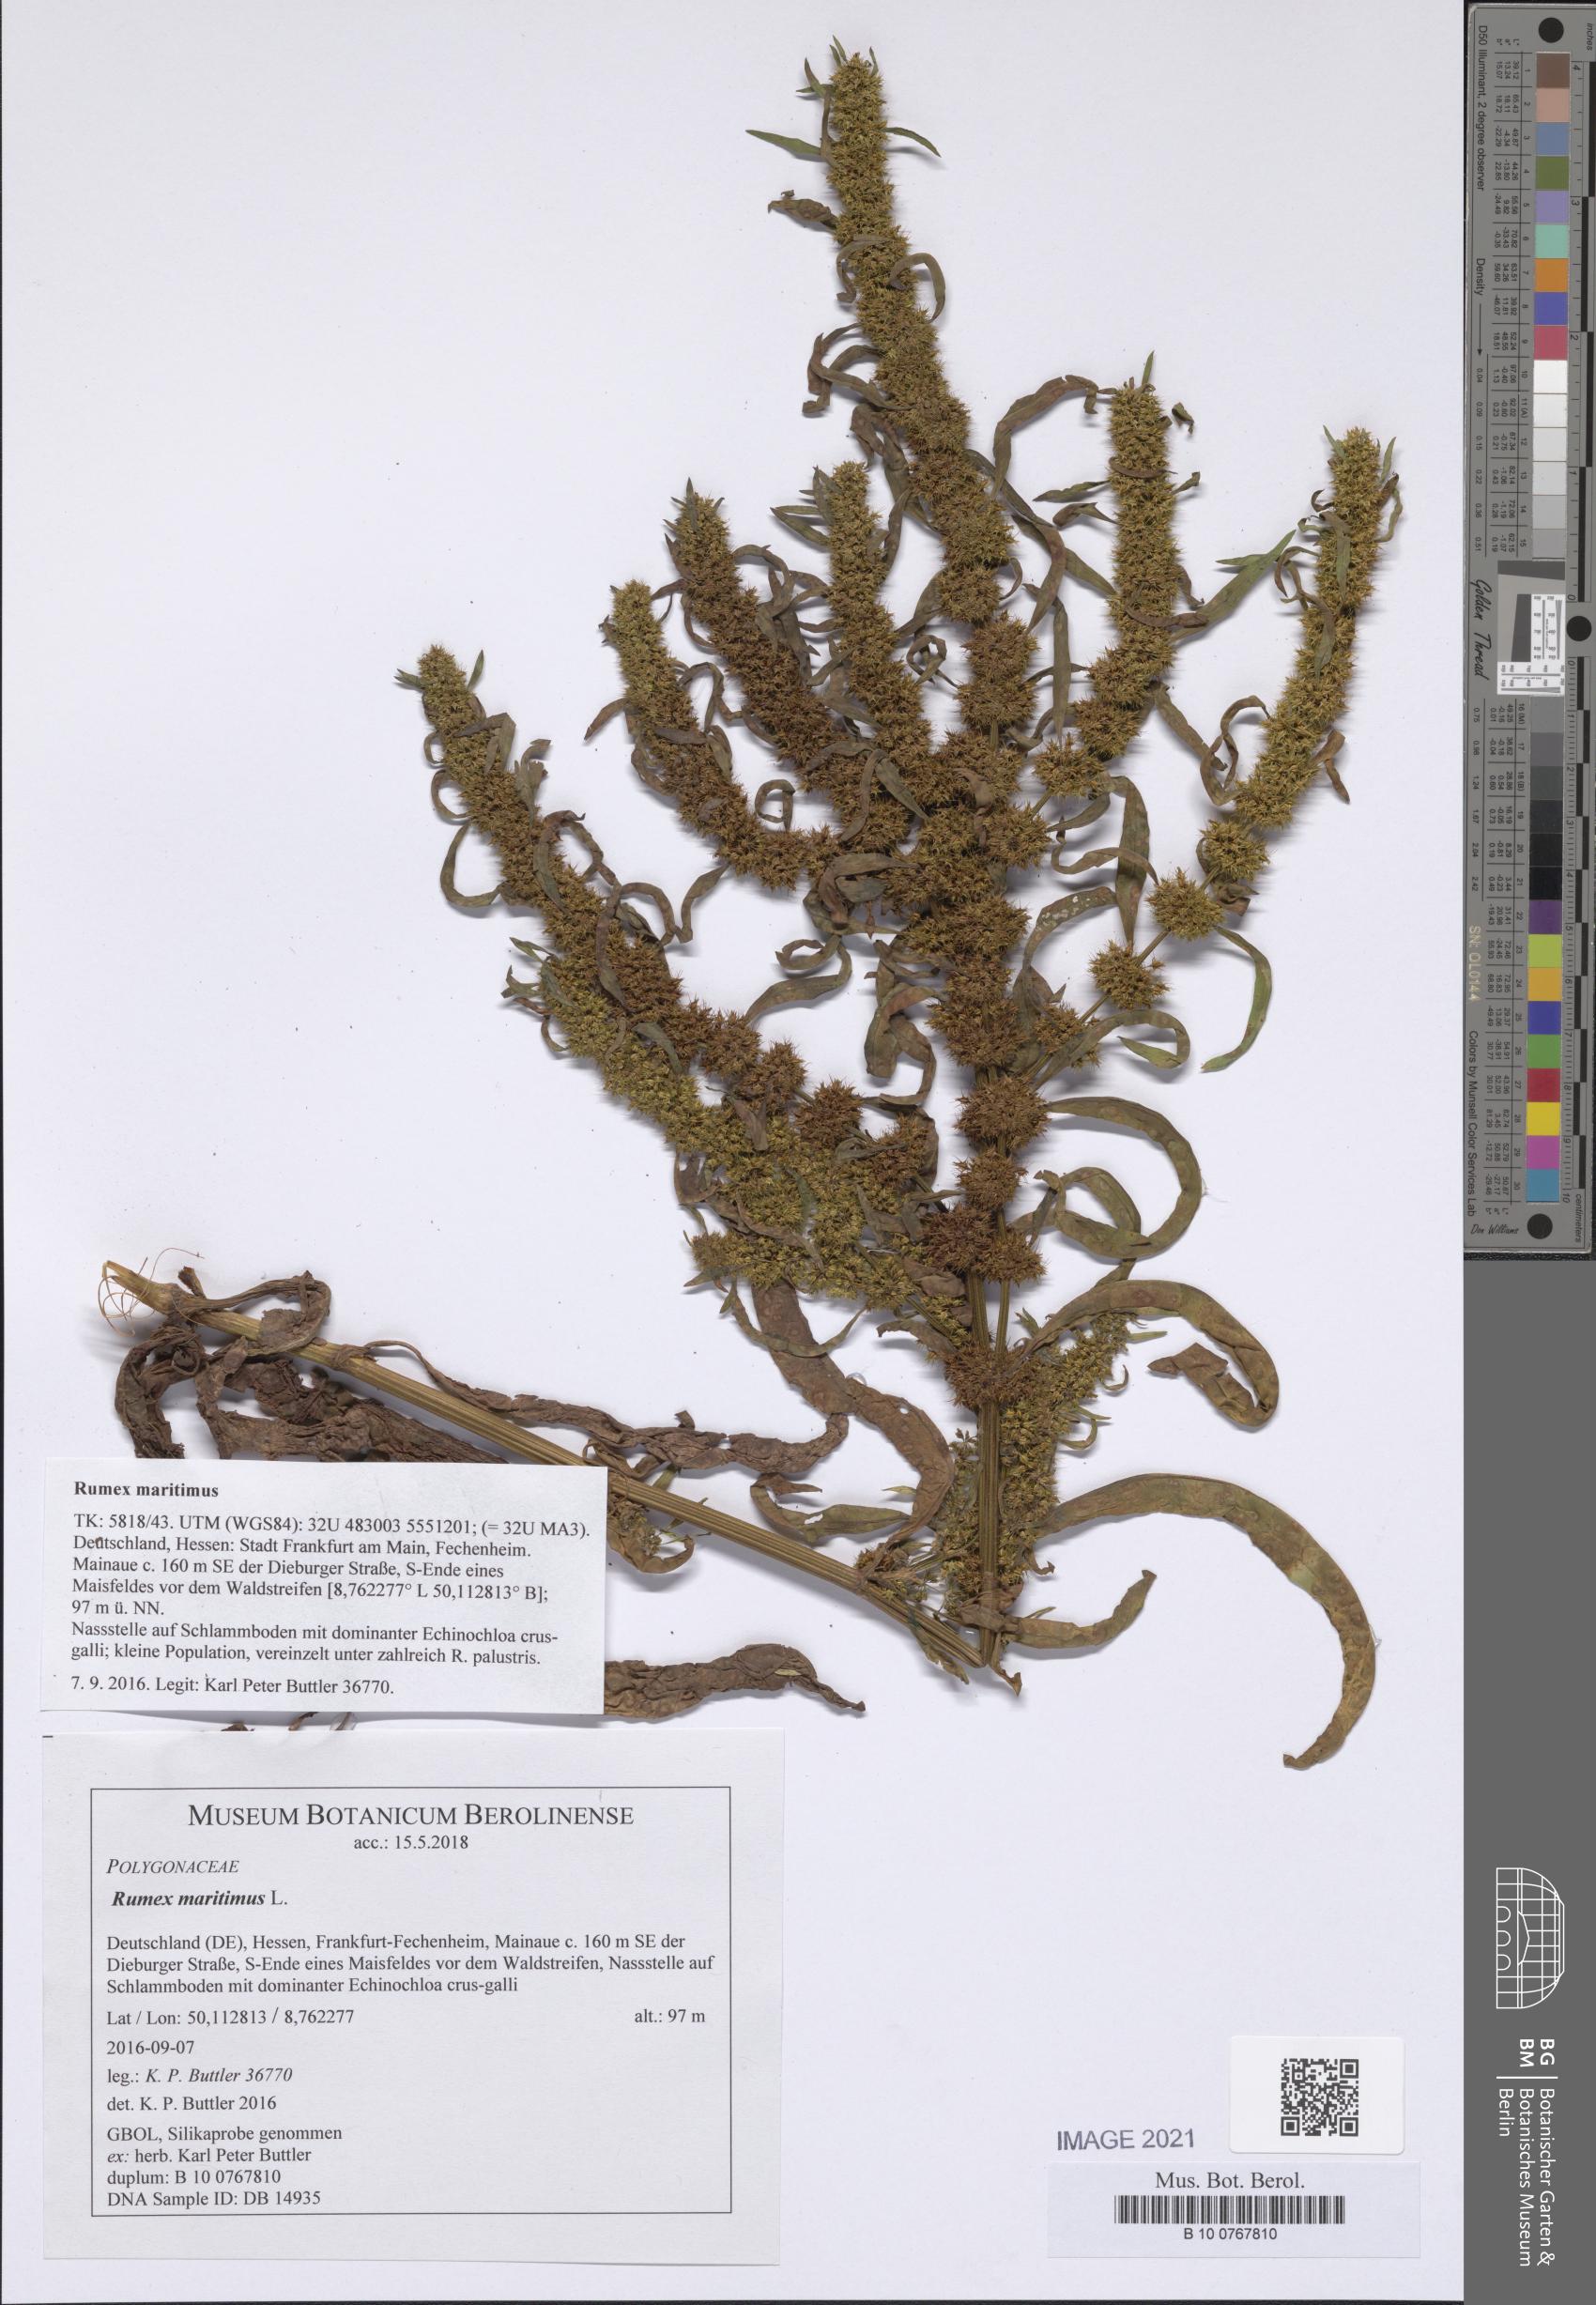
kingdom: Plantae
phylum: Tracheophyta
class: Magnoliopsida
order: Caryophyllales
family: Polygonaceae
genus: Rumex
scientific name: Rumex maritimus
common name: Golden dock
